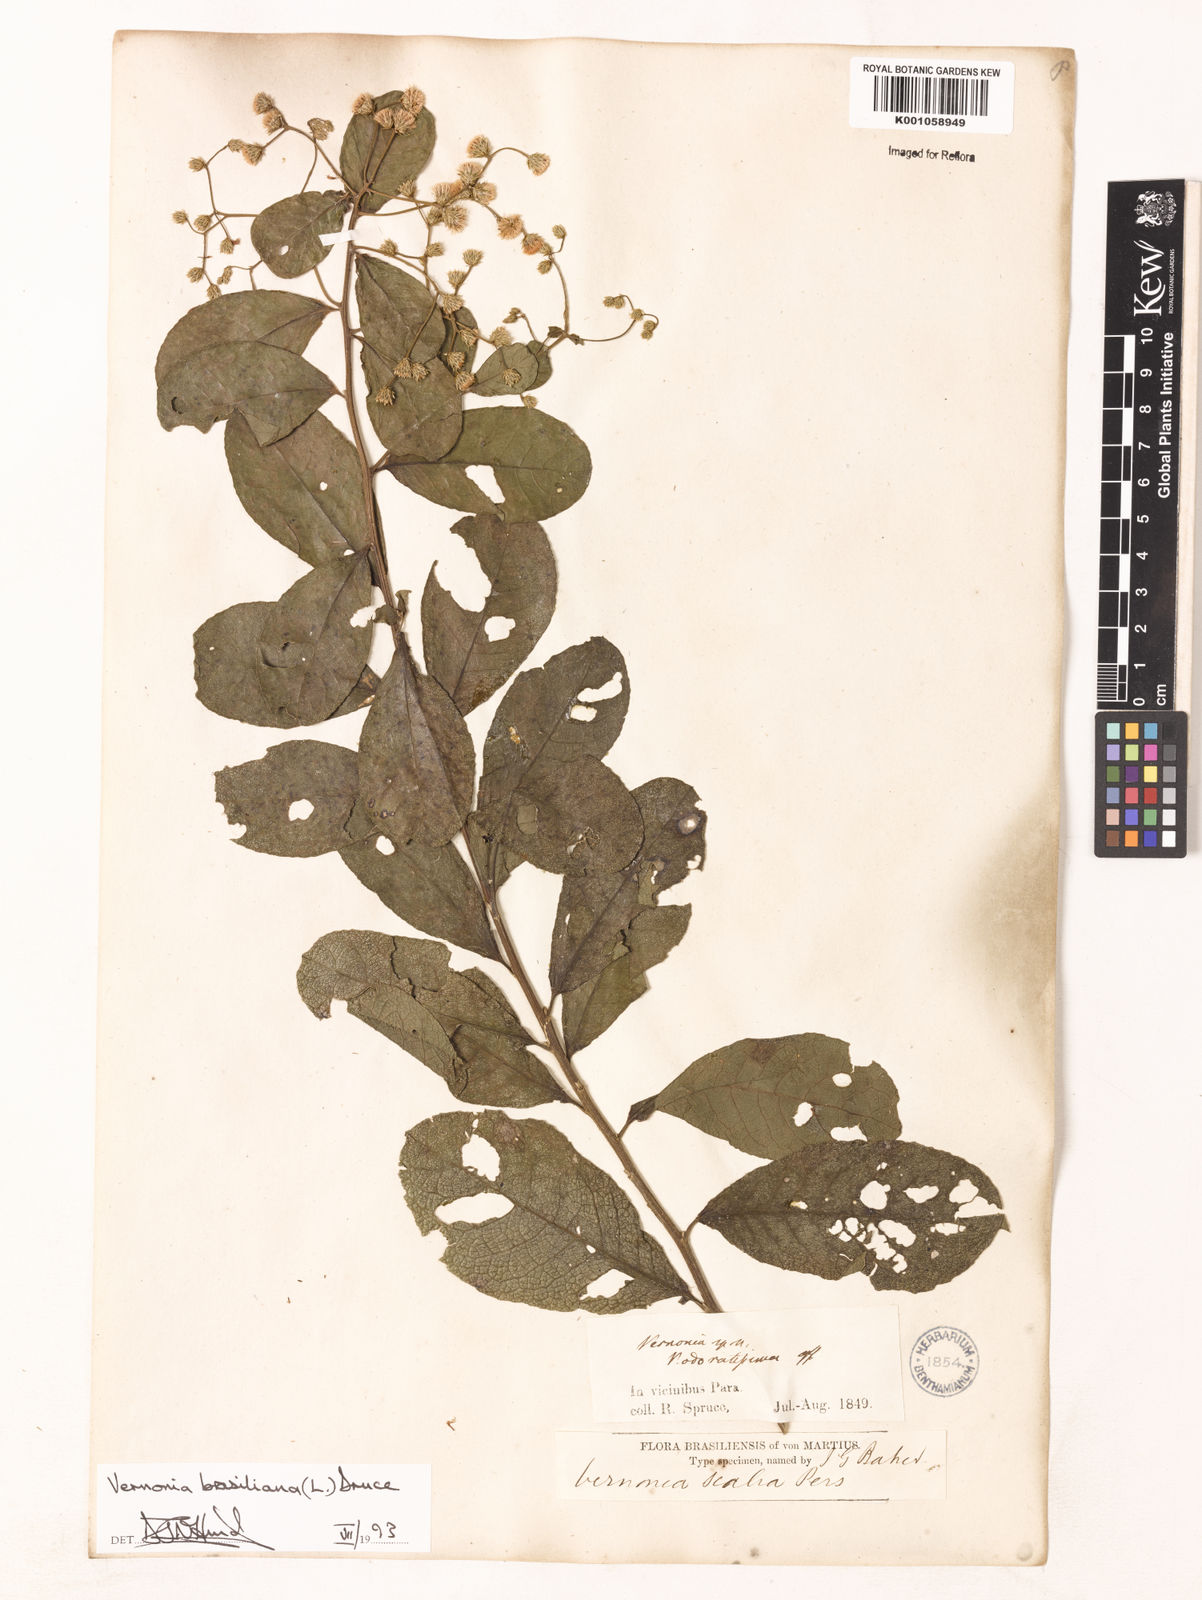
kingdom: Plantae
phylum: Tracheophyta
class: Magnoliopsida
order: Asterales
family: Asteraceae
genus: Vernonanthura
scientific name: Vernonanthura brasiliana
